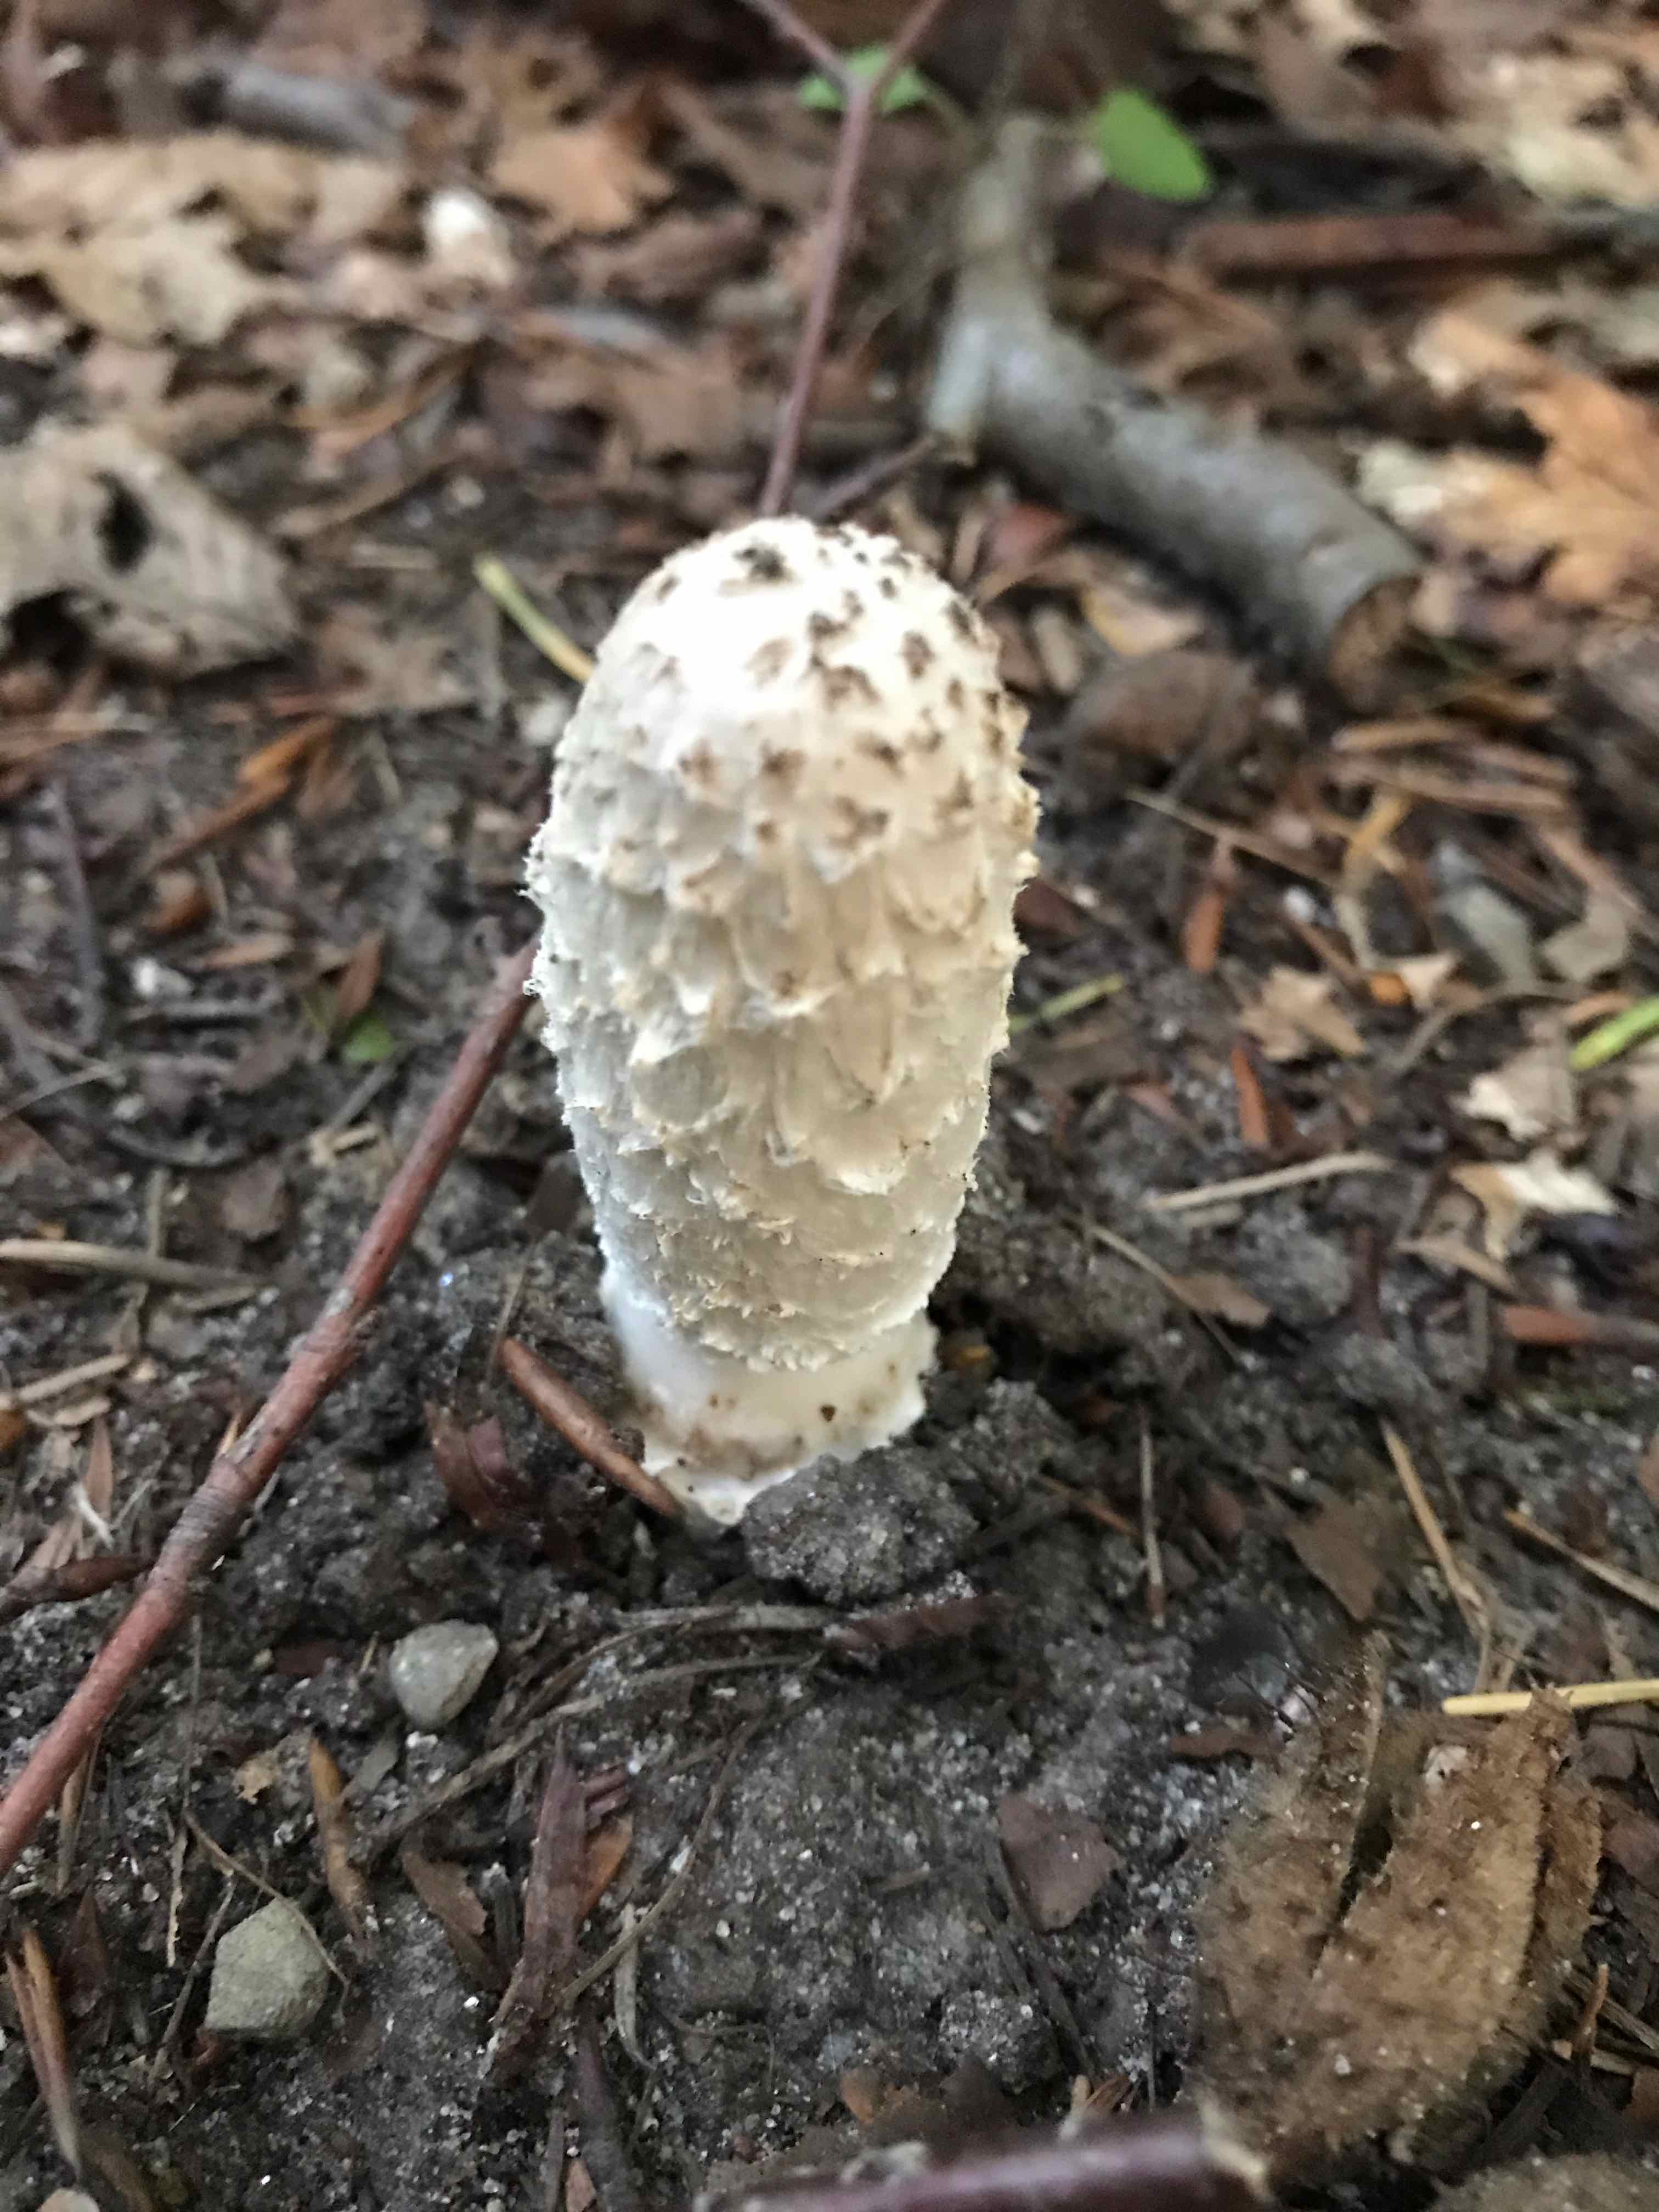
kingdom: Fungi
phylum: Basidiomycota
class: Agaricomycetes
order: Agaricales
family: Agaricaceae
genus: Coprinus
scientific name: Coprinus comatus
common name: stor parykhat
